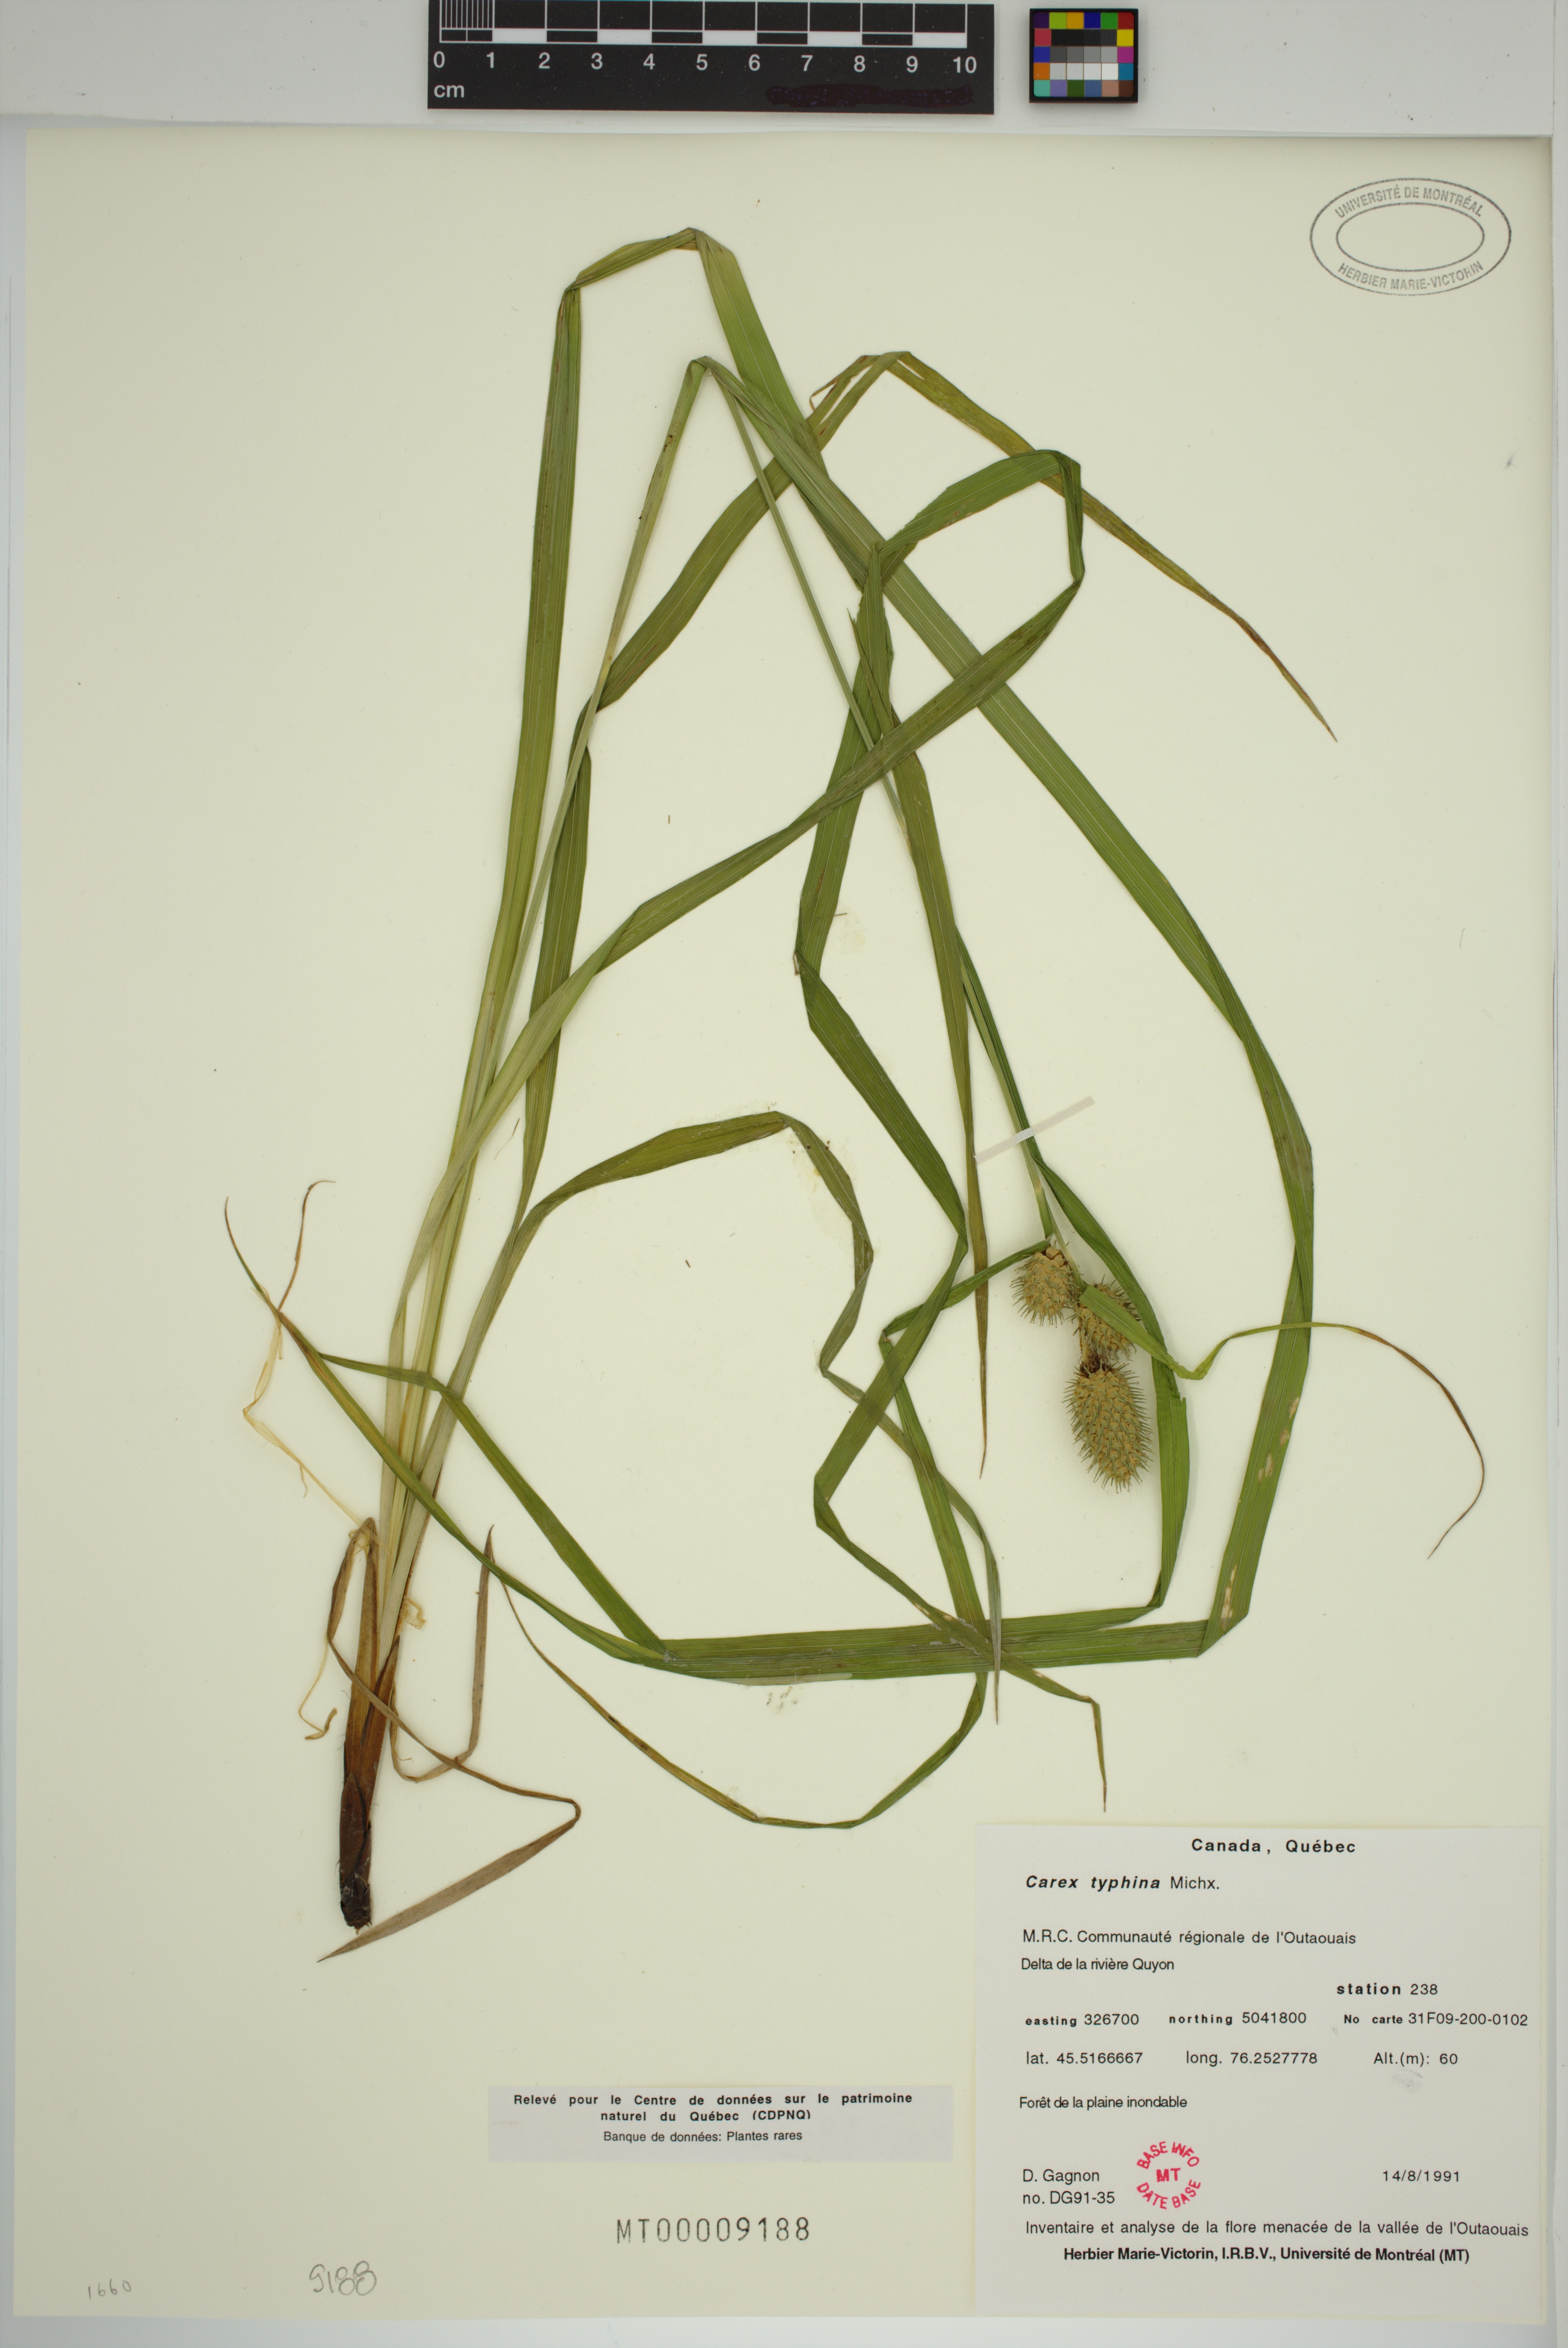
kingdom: Plantae
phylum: Tracheophyta
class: Liliopsida
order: Poales
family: Cyperaceae
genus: Carex
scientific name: Carex typhina
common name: Cattail sedge
